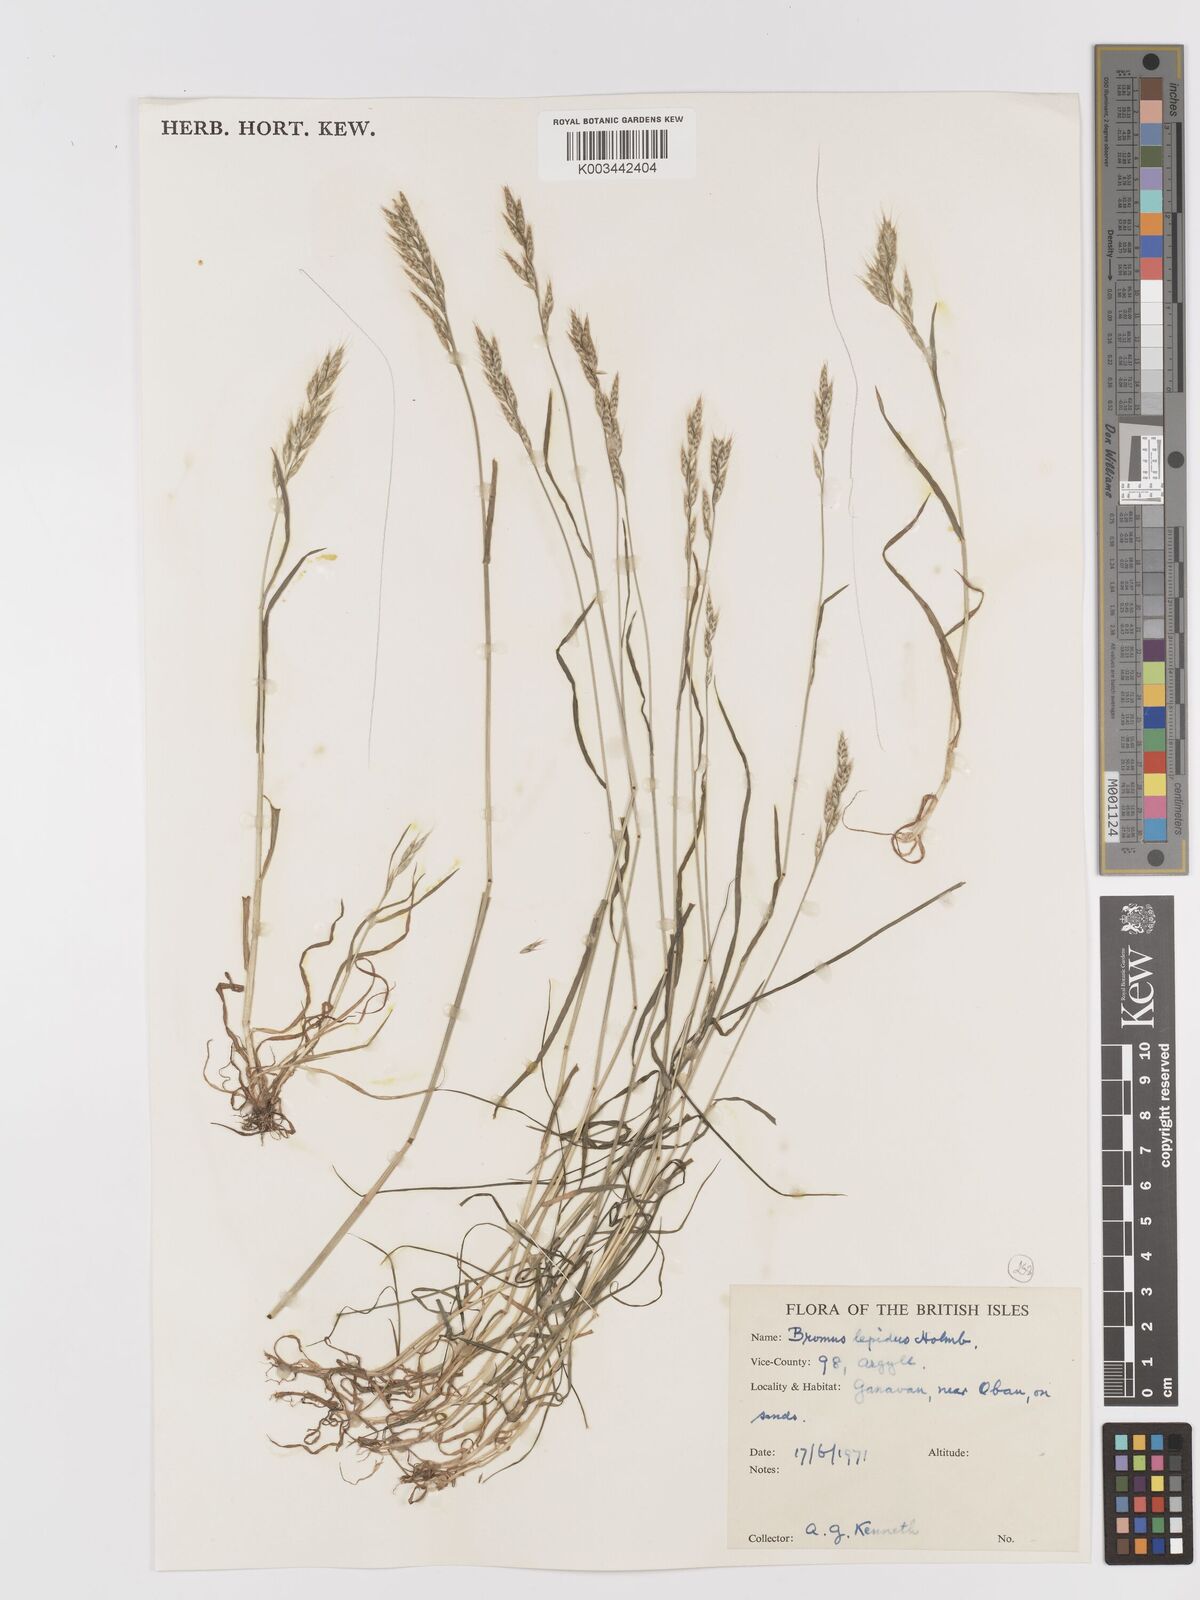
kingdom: Plantae
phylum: Tracheophyta
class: Liliopsida
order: Poales
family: Poaceae
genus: Bromus
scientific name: Bromus lepidus
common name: Slender soft-brome
